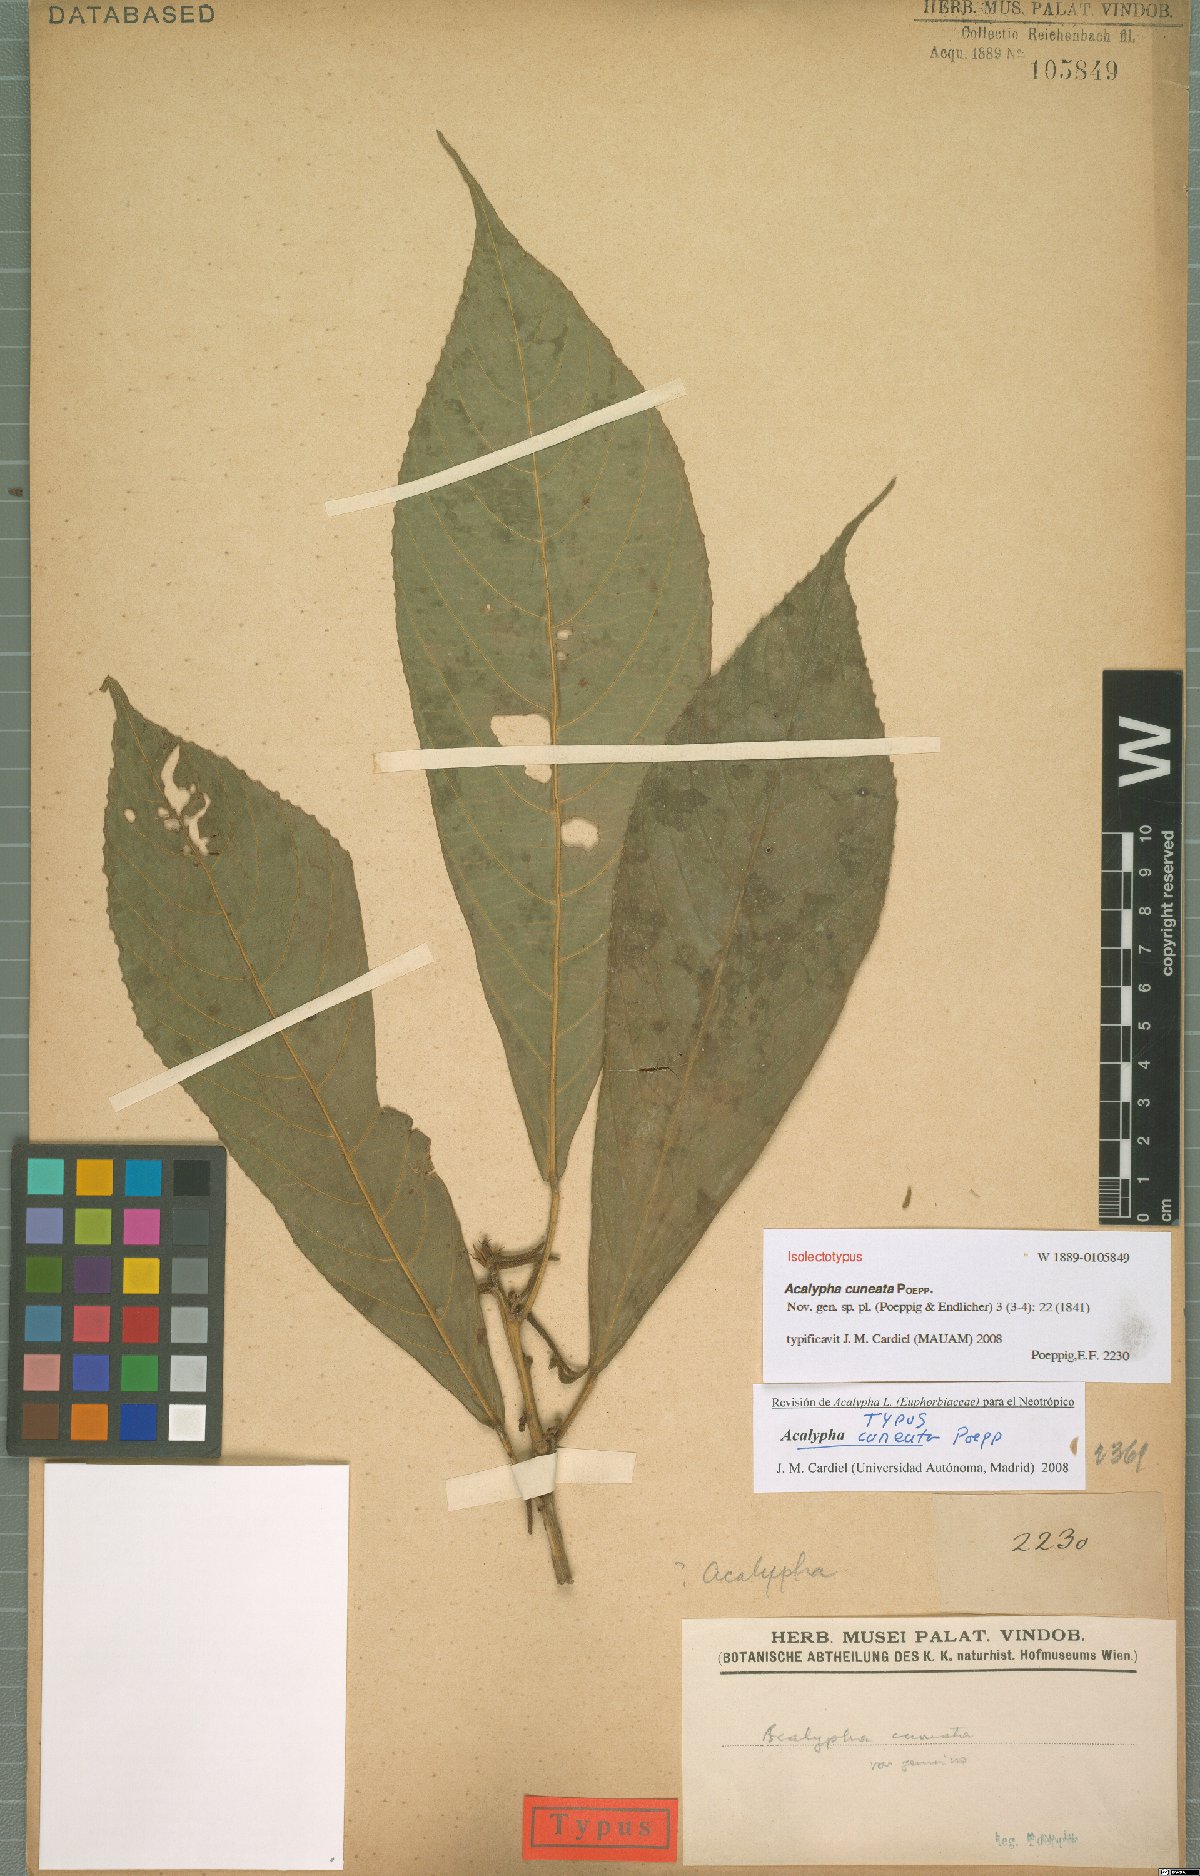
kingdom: Plantae
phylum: Tracheophyta
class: Magnoliopsida
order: Malpighiales
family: Euphorbiaceae
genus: Acalypha
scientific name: Acalypha cuneata
